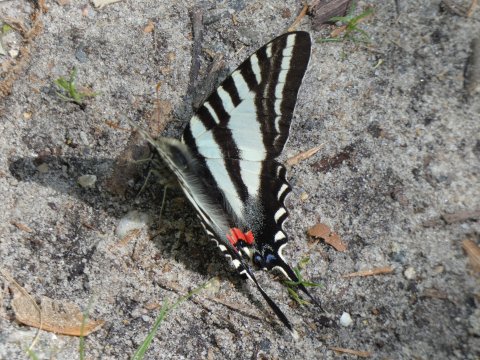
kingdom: Animalia
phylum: Arthropoda
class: Insecta
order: Lepidoptera
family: Papilionidae
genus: Protographium
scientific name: Protographium marcellus
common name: Zebra Swallowtail
